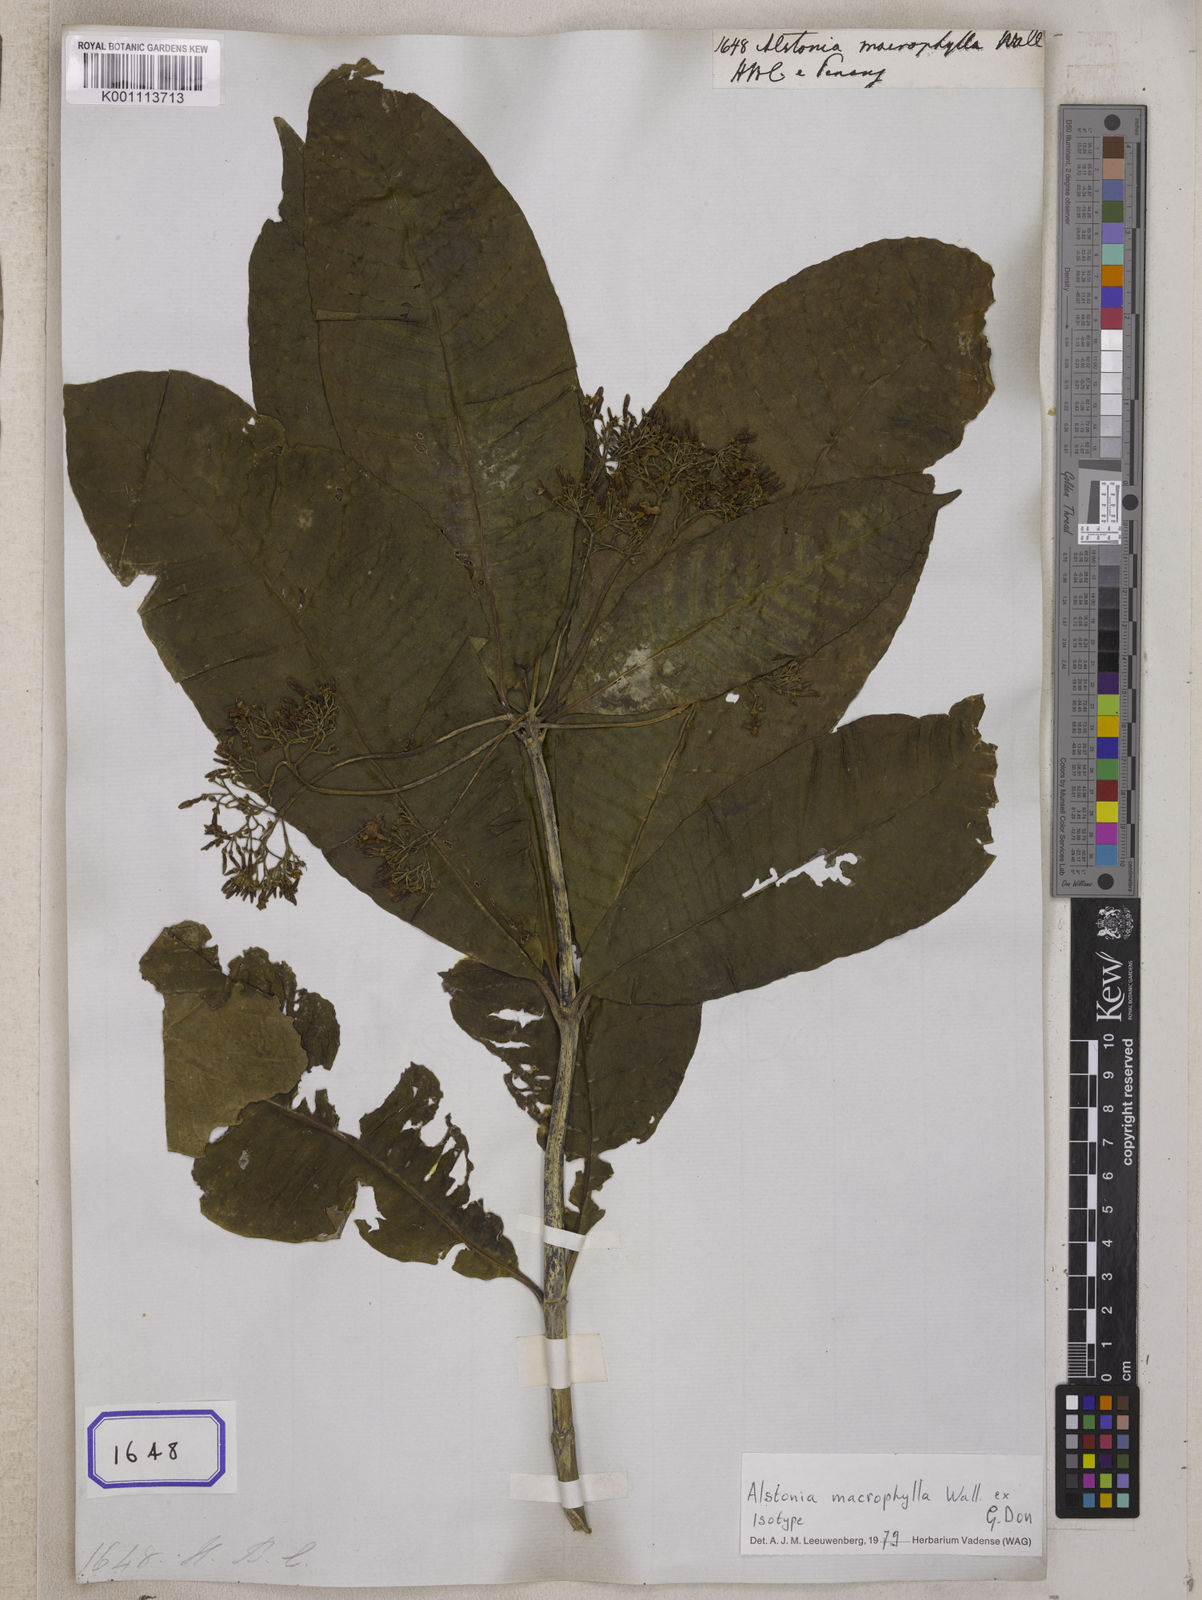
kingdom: Plantae
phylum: Tracheophyta
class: Magnoliopsida
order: Gentianales
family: Apocynaceae
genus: Alstonia
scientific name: Alstonia
